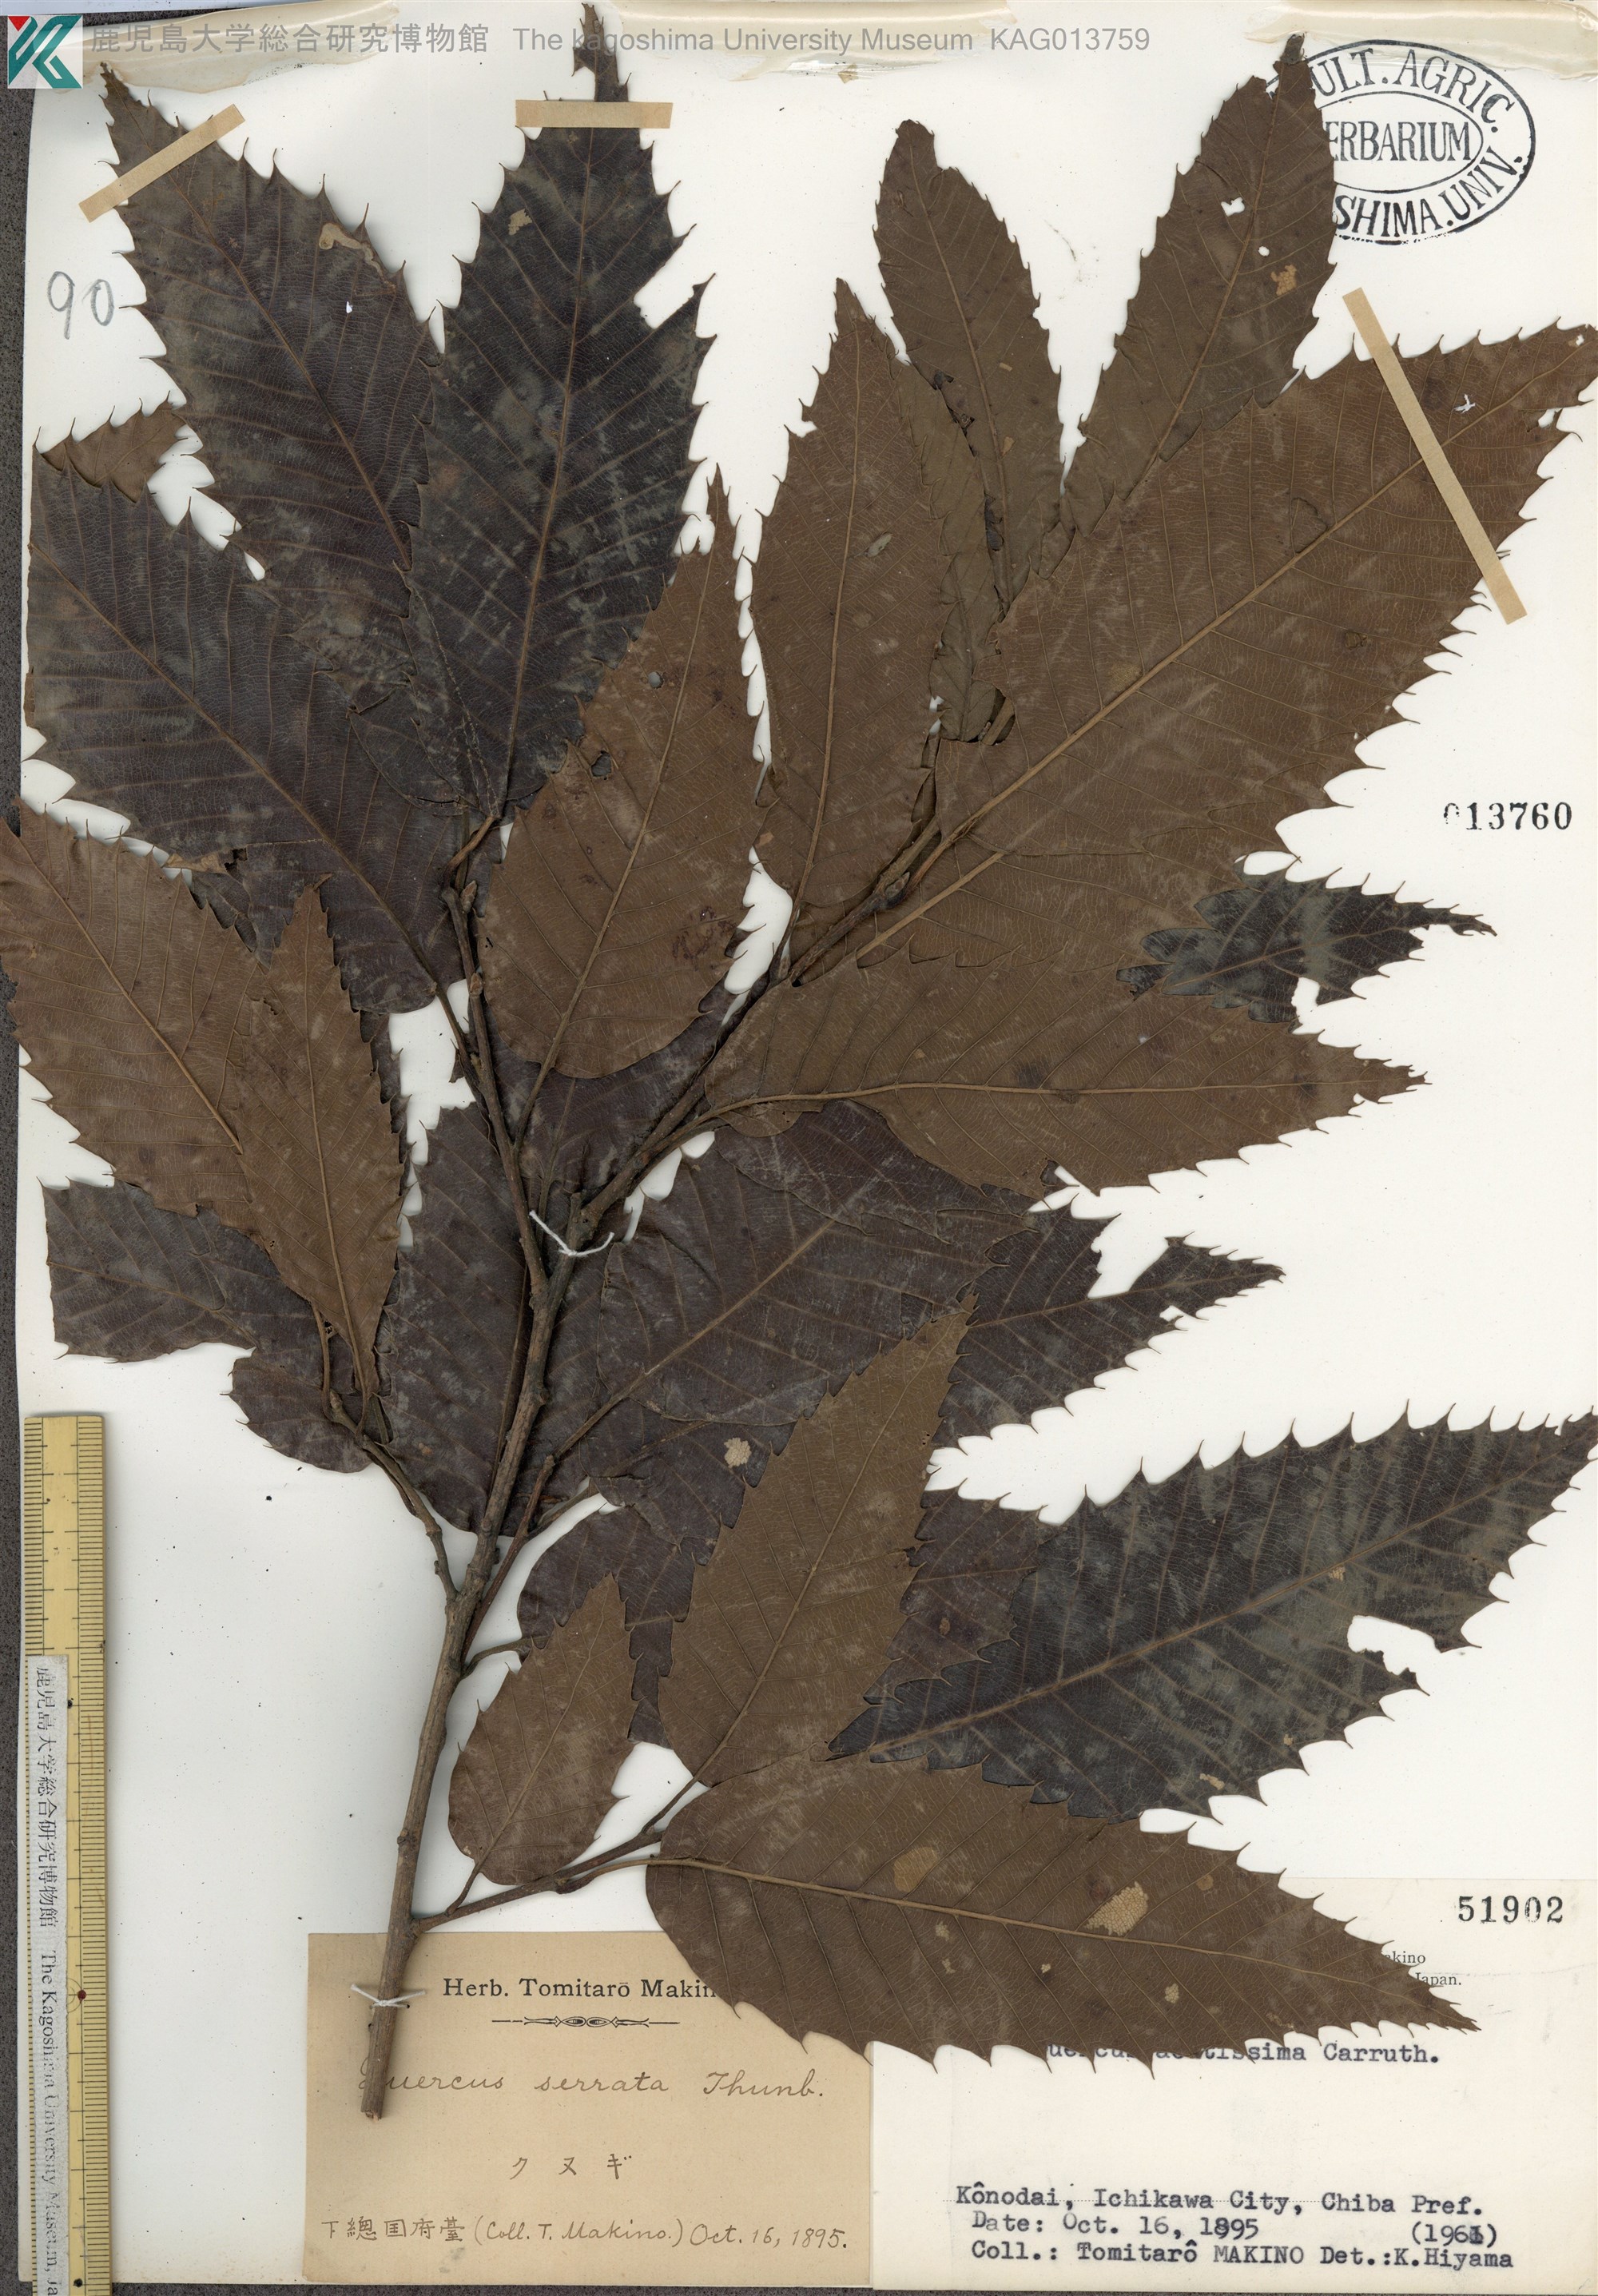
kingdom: Plantae
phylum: Tracheophyta
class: Magnoliopsida
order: Fagales
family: Fagaceae
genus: Quercus
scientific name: Quercus acutissima
